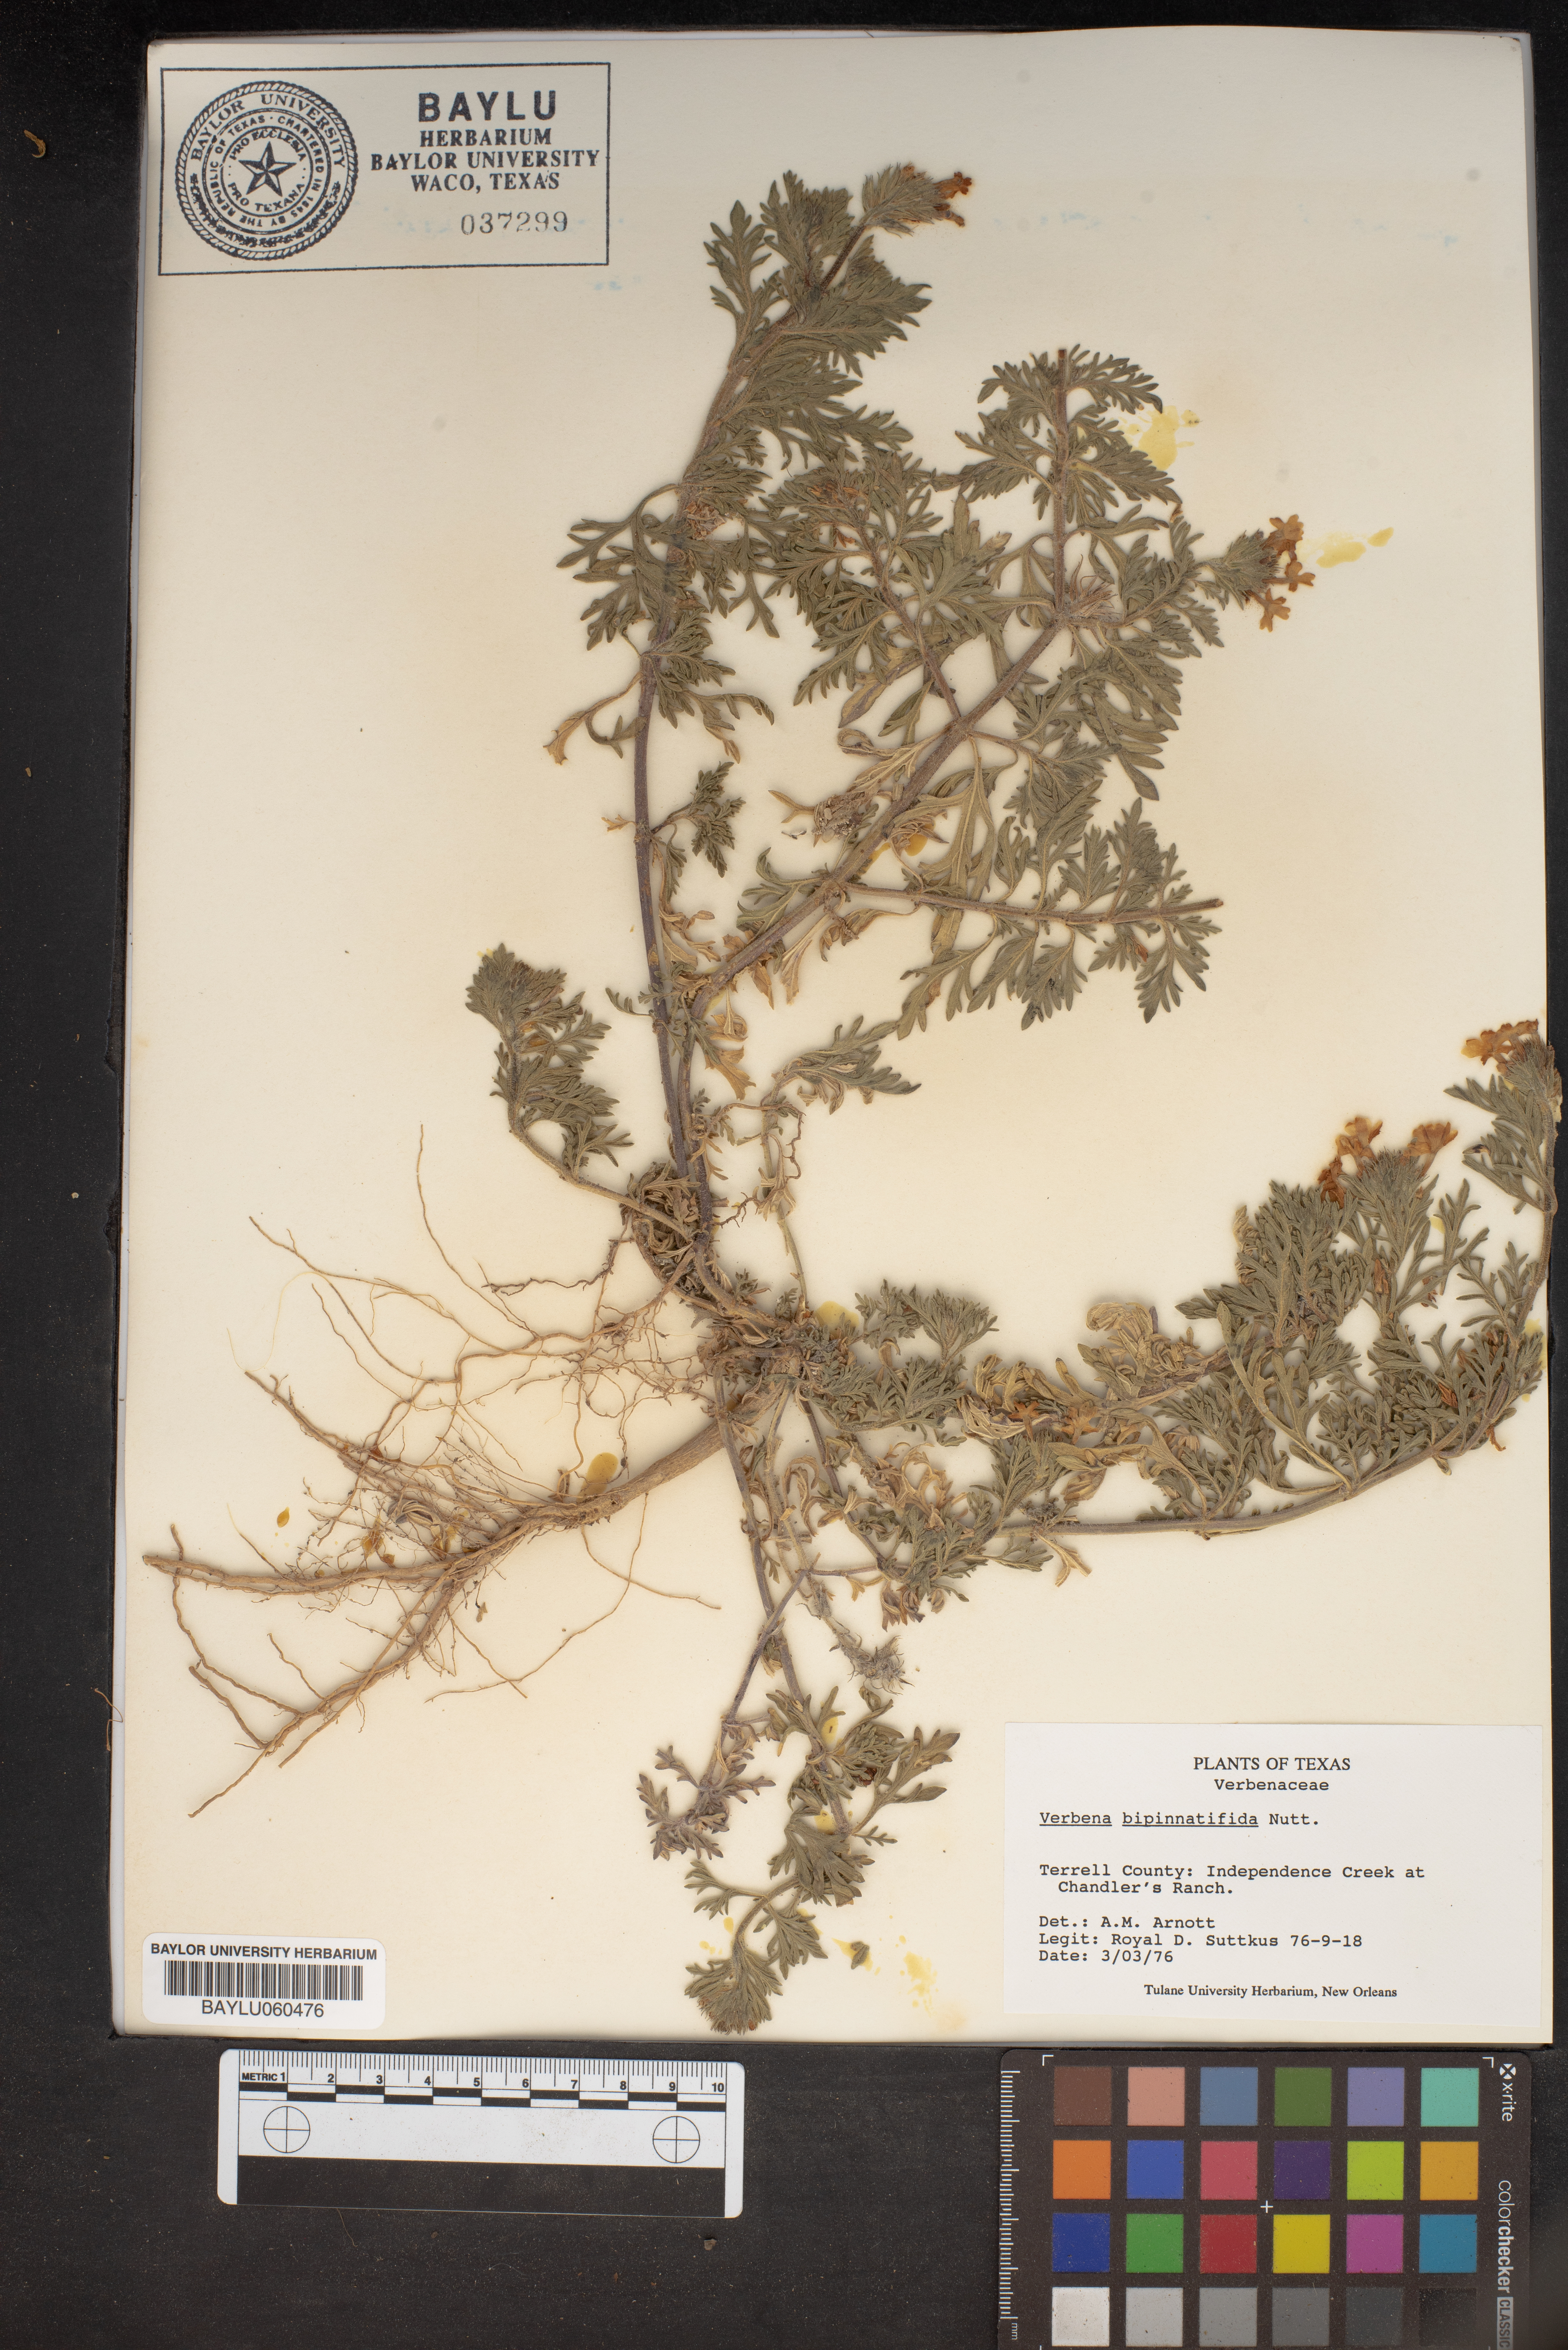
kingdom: Plantae
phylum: Tracheophyta
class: Magnoliopsida
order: Lamiales
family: Verbenaceae
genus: Verbena
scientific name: Verbena bipinnatifida
